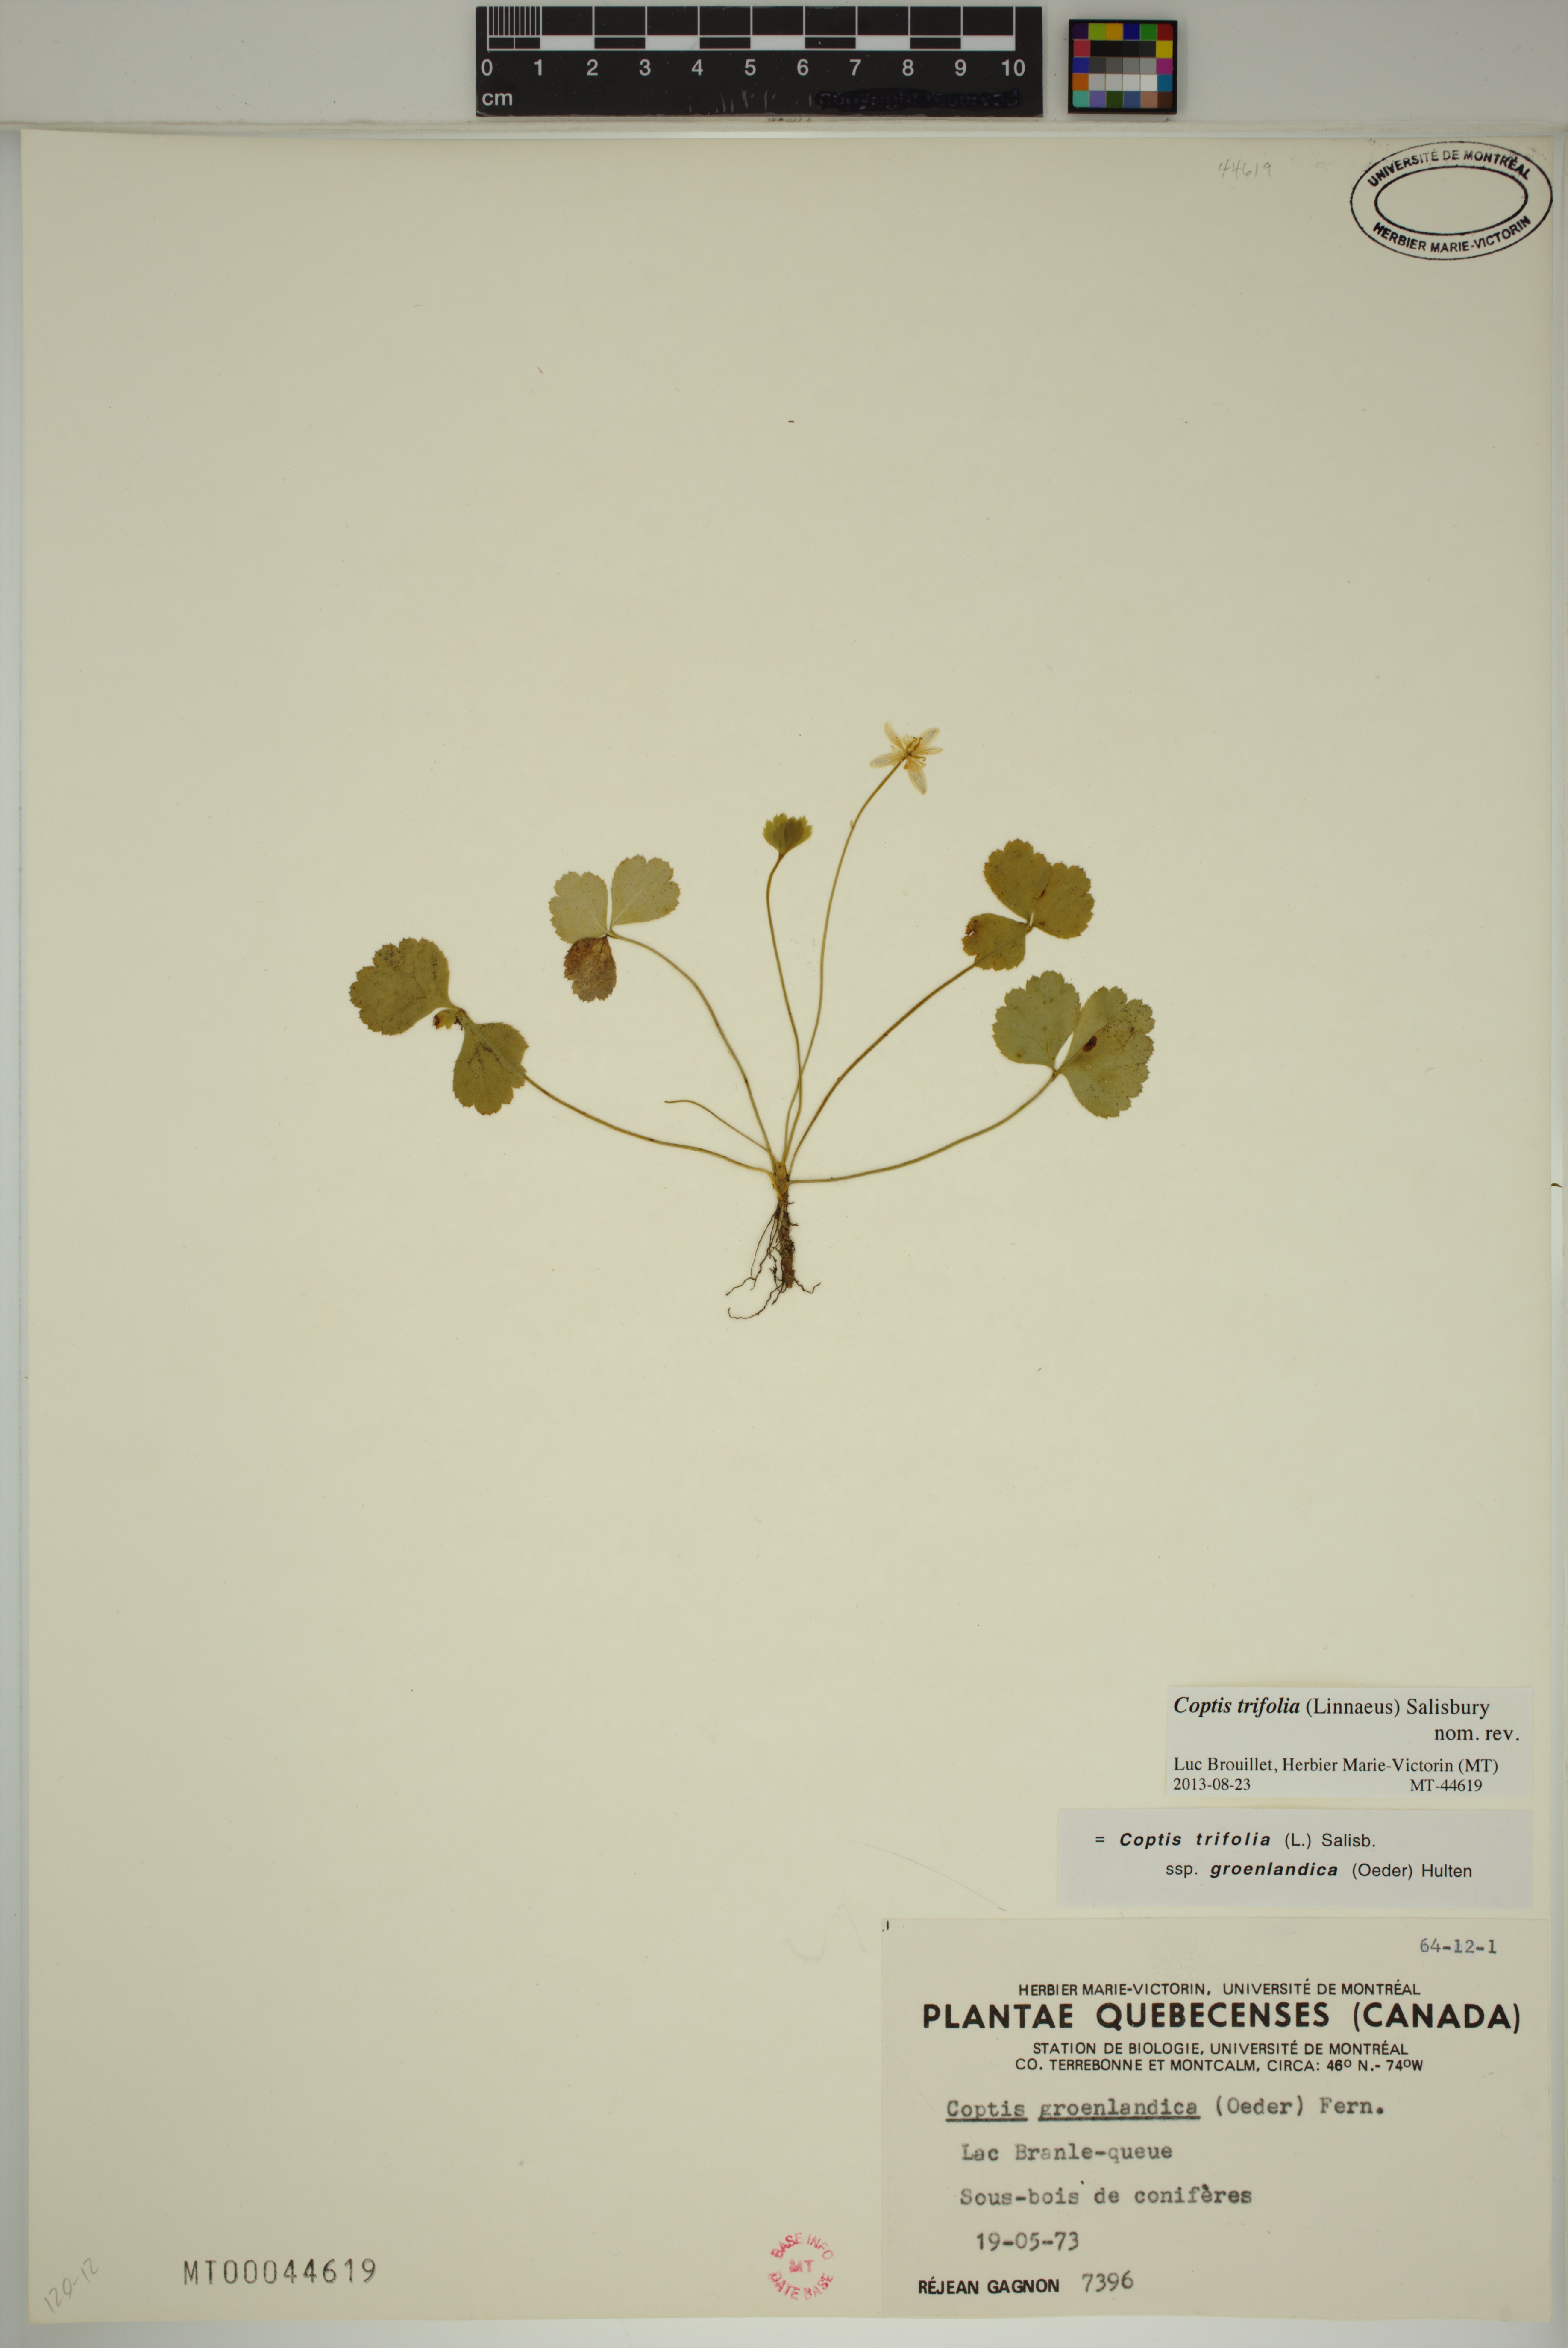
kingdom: Plantae
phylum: Tracheophyta
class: Magnoliopsida
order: Ranunculales
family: Ranunculaceae
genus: Coptis
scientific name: Coptis trifolia
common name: Canker-root
